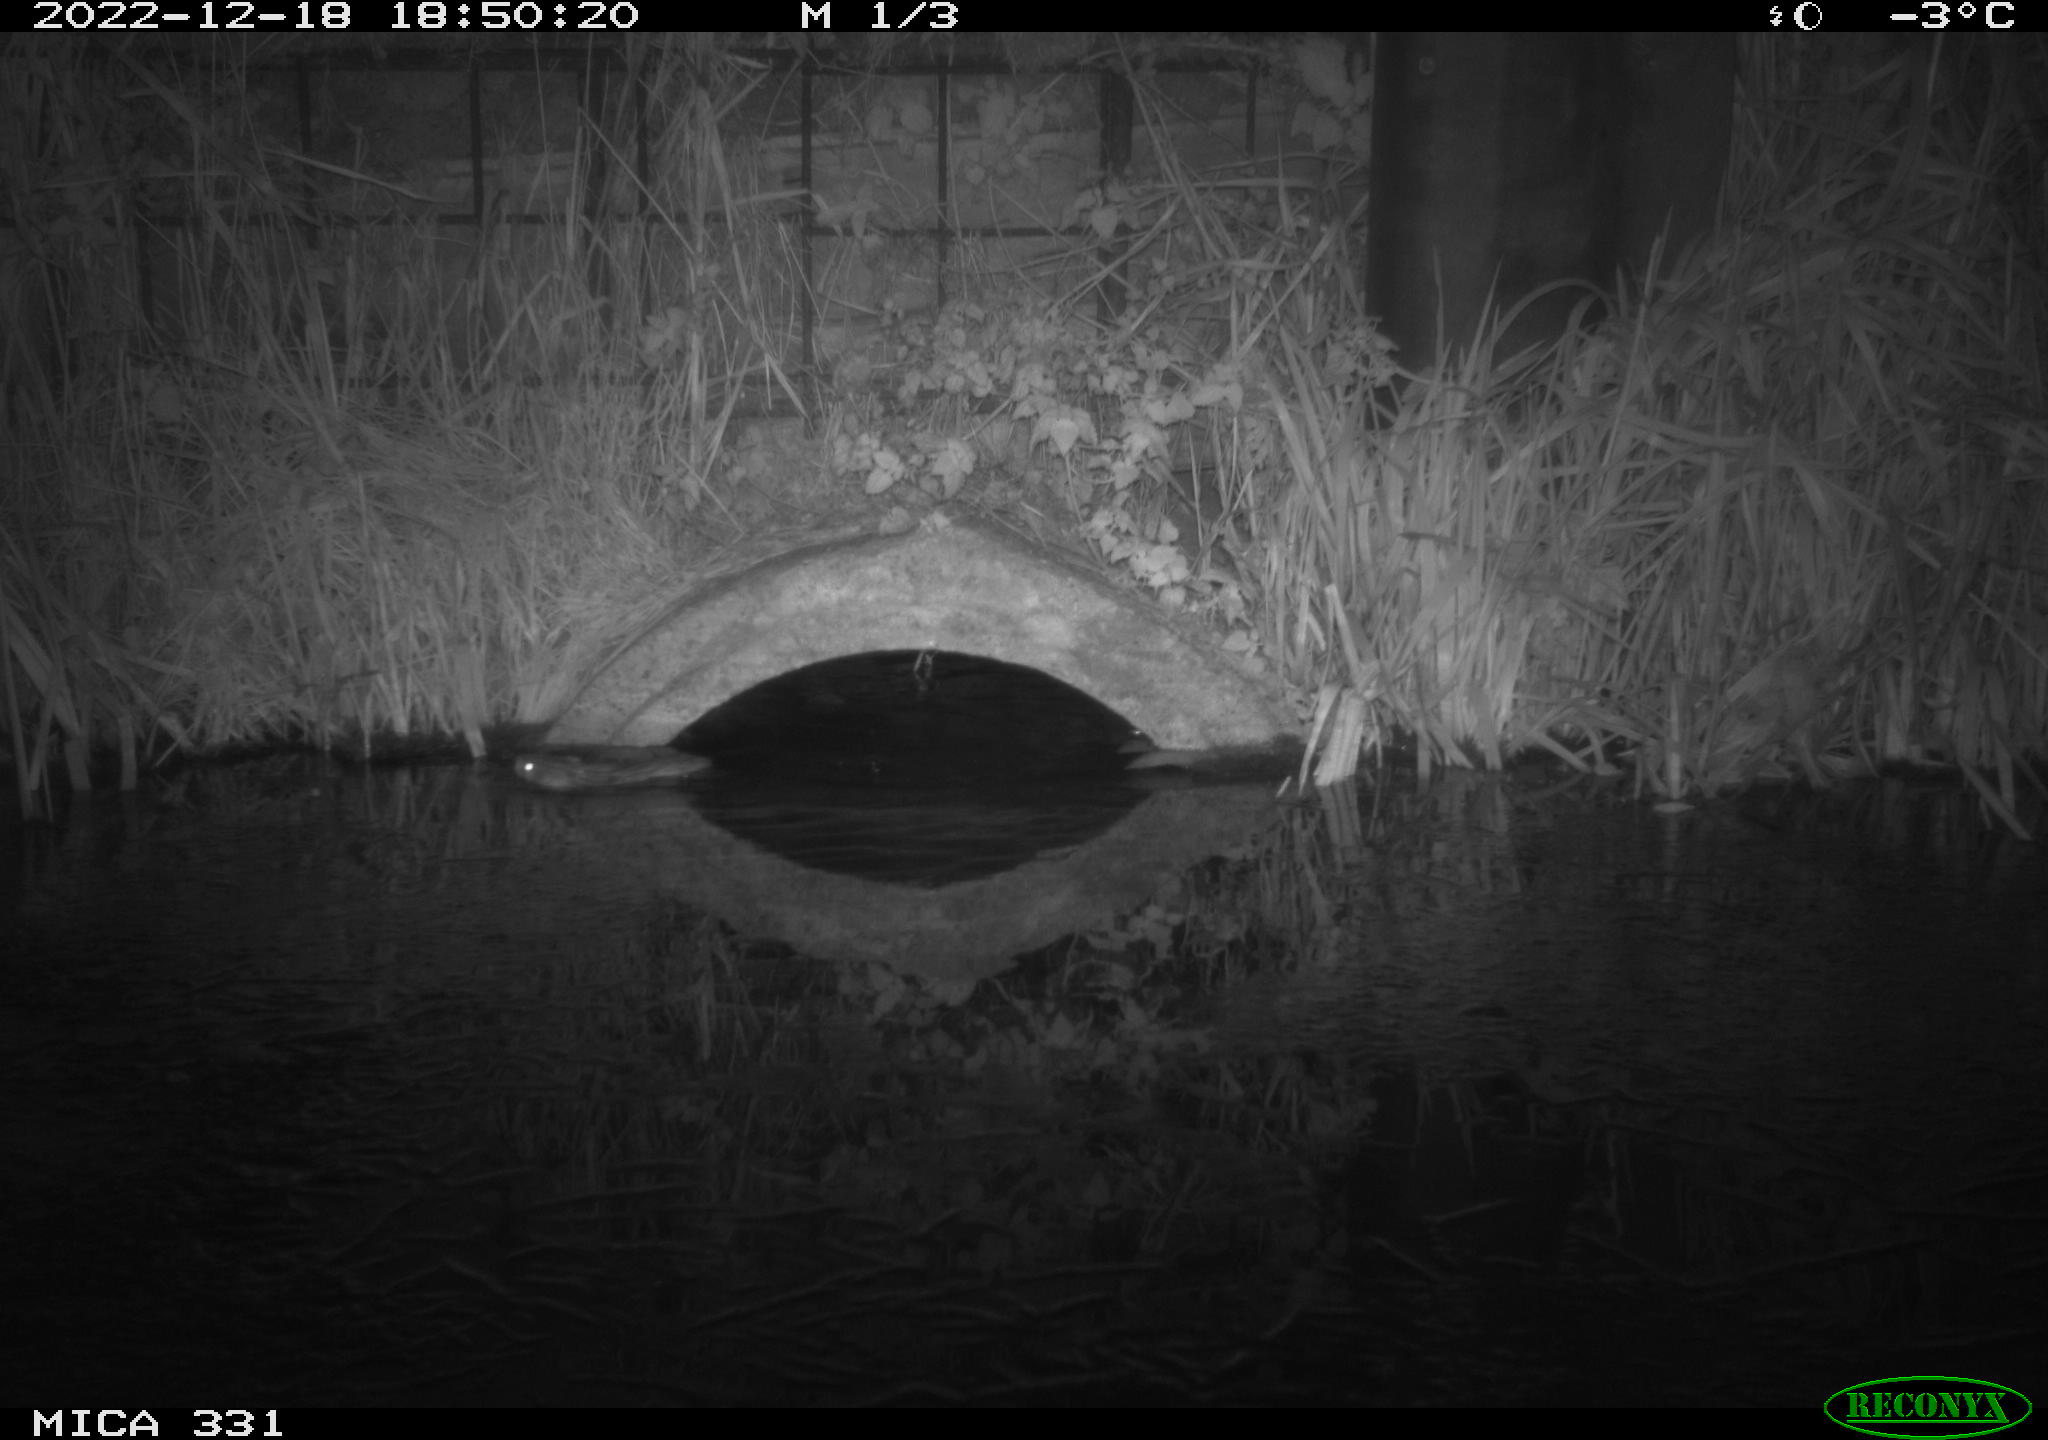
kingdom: Animalia
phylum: Chordata
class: Mammalia
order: Rodentia
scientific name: Rodentia
